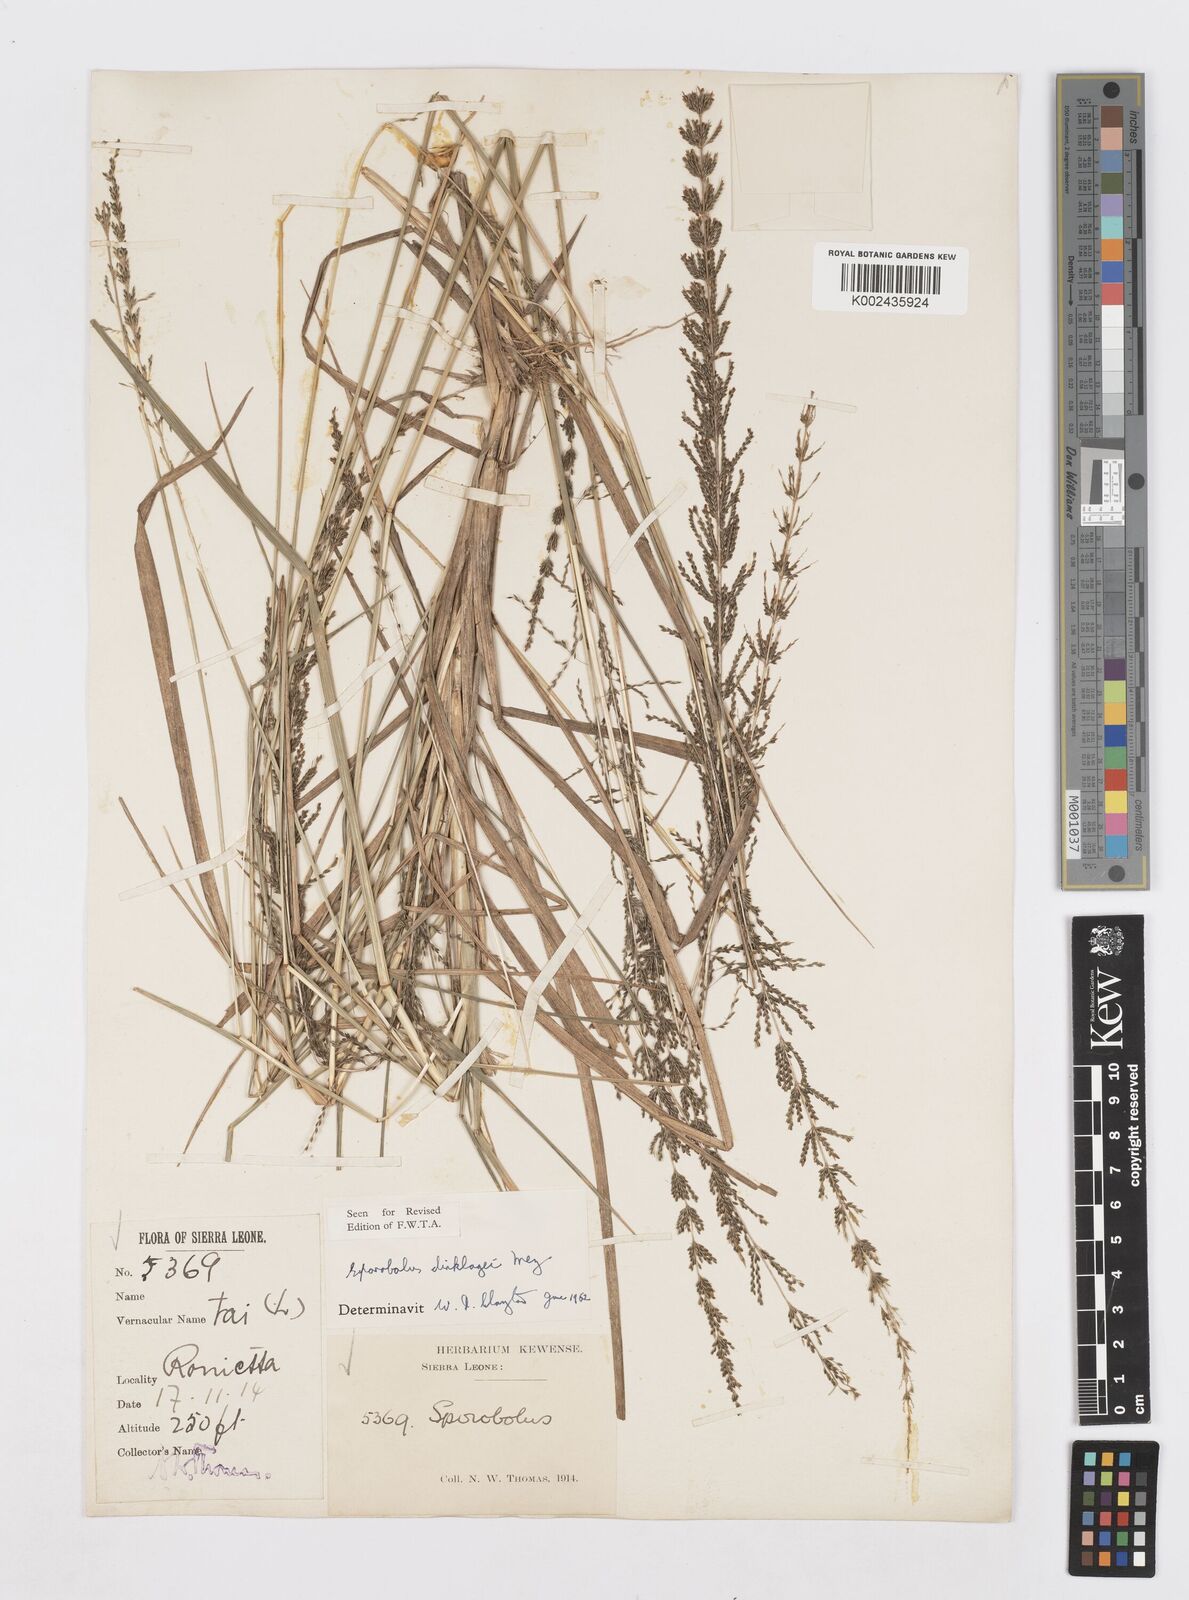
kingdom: Plantae
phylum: Tracheophyta
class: Liliopsida
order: Poales
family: Poaceae
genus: Sporobolus
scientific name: Sporobolus dinklagei
